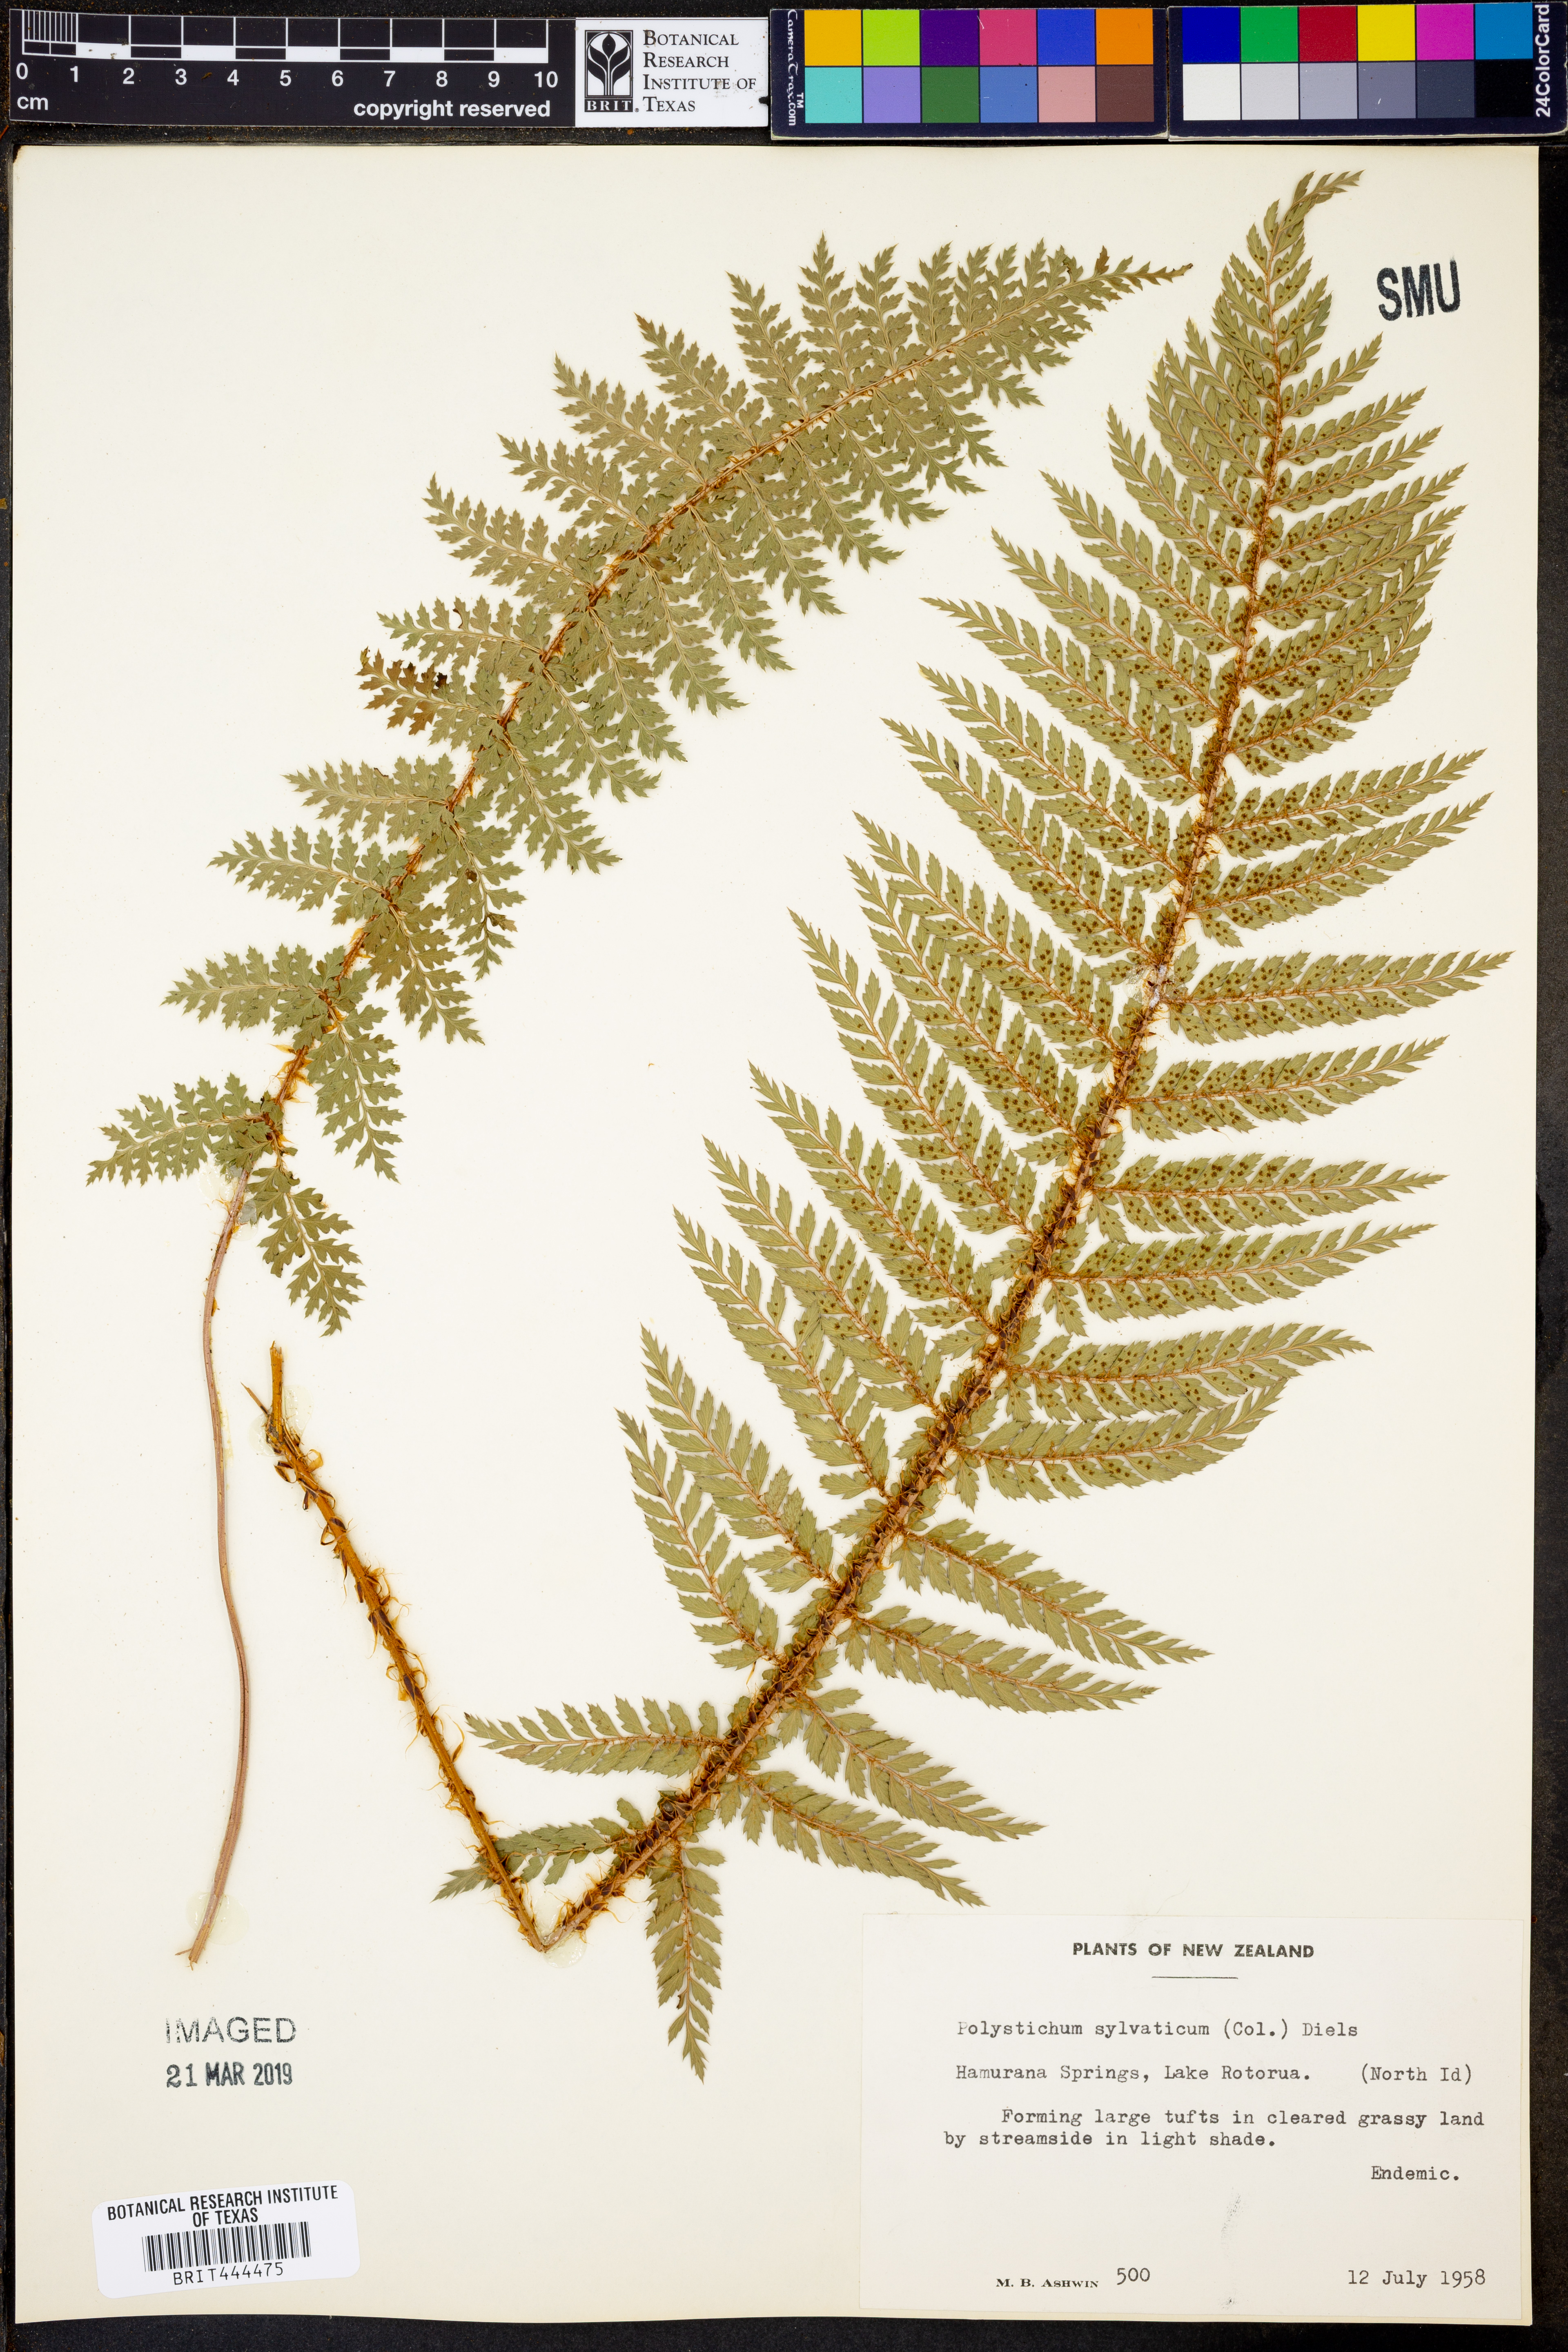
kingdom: Plantae
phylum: Tracheophyta
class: Polypodiopsida
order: Polypodiales
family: Dryopteridaceae
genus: Polystichum
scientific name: Polystichum silvaticum
